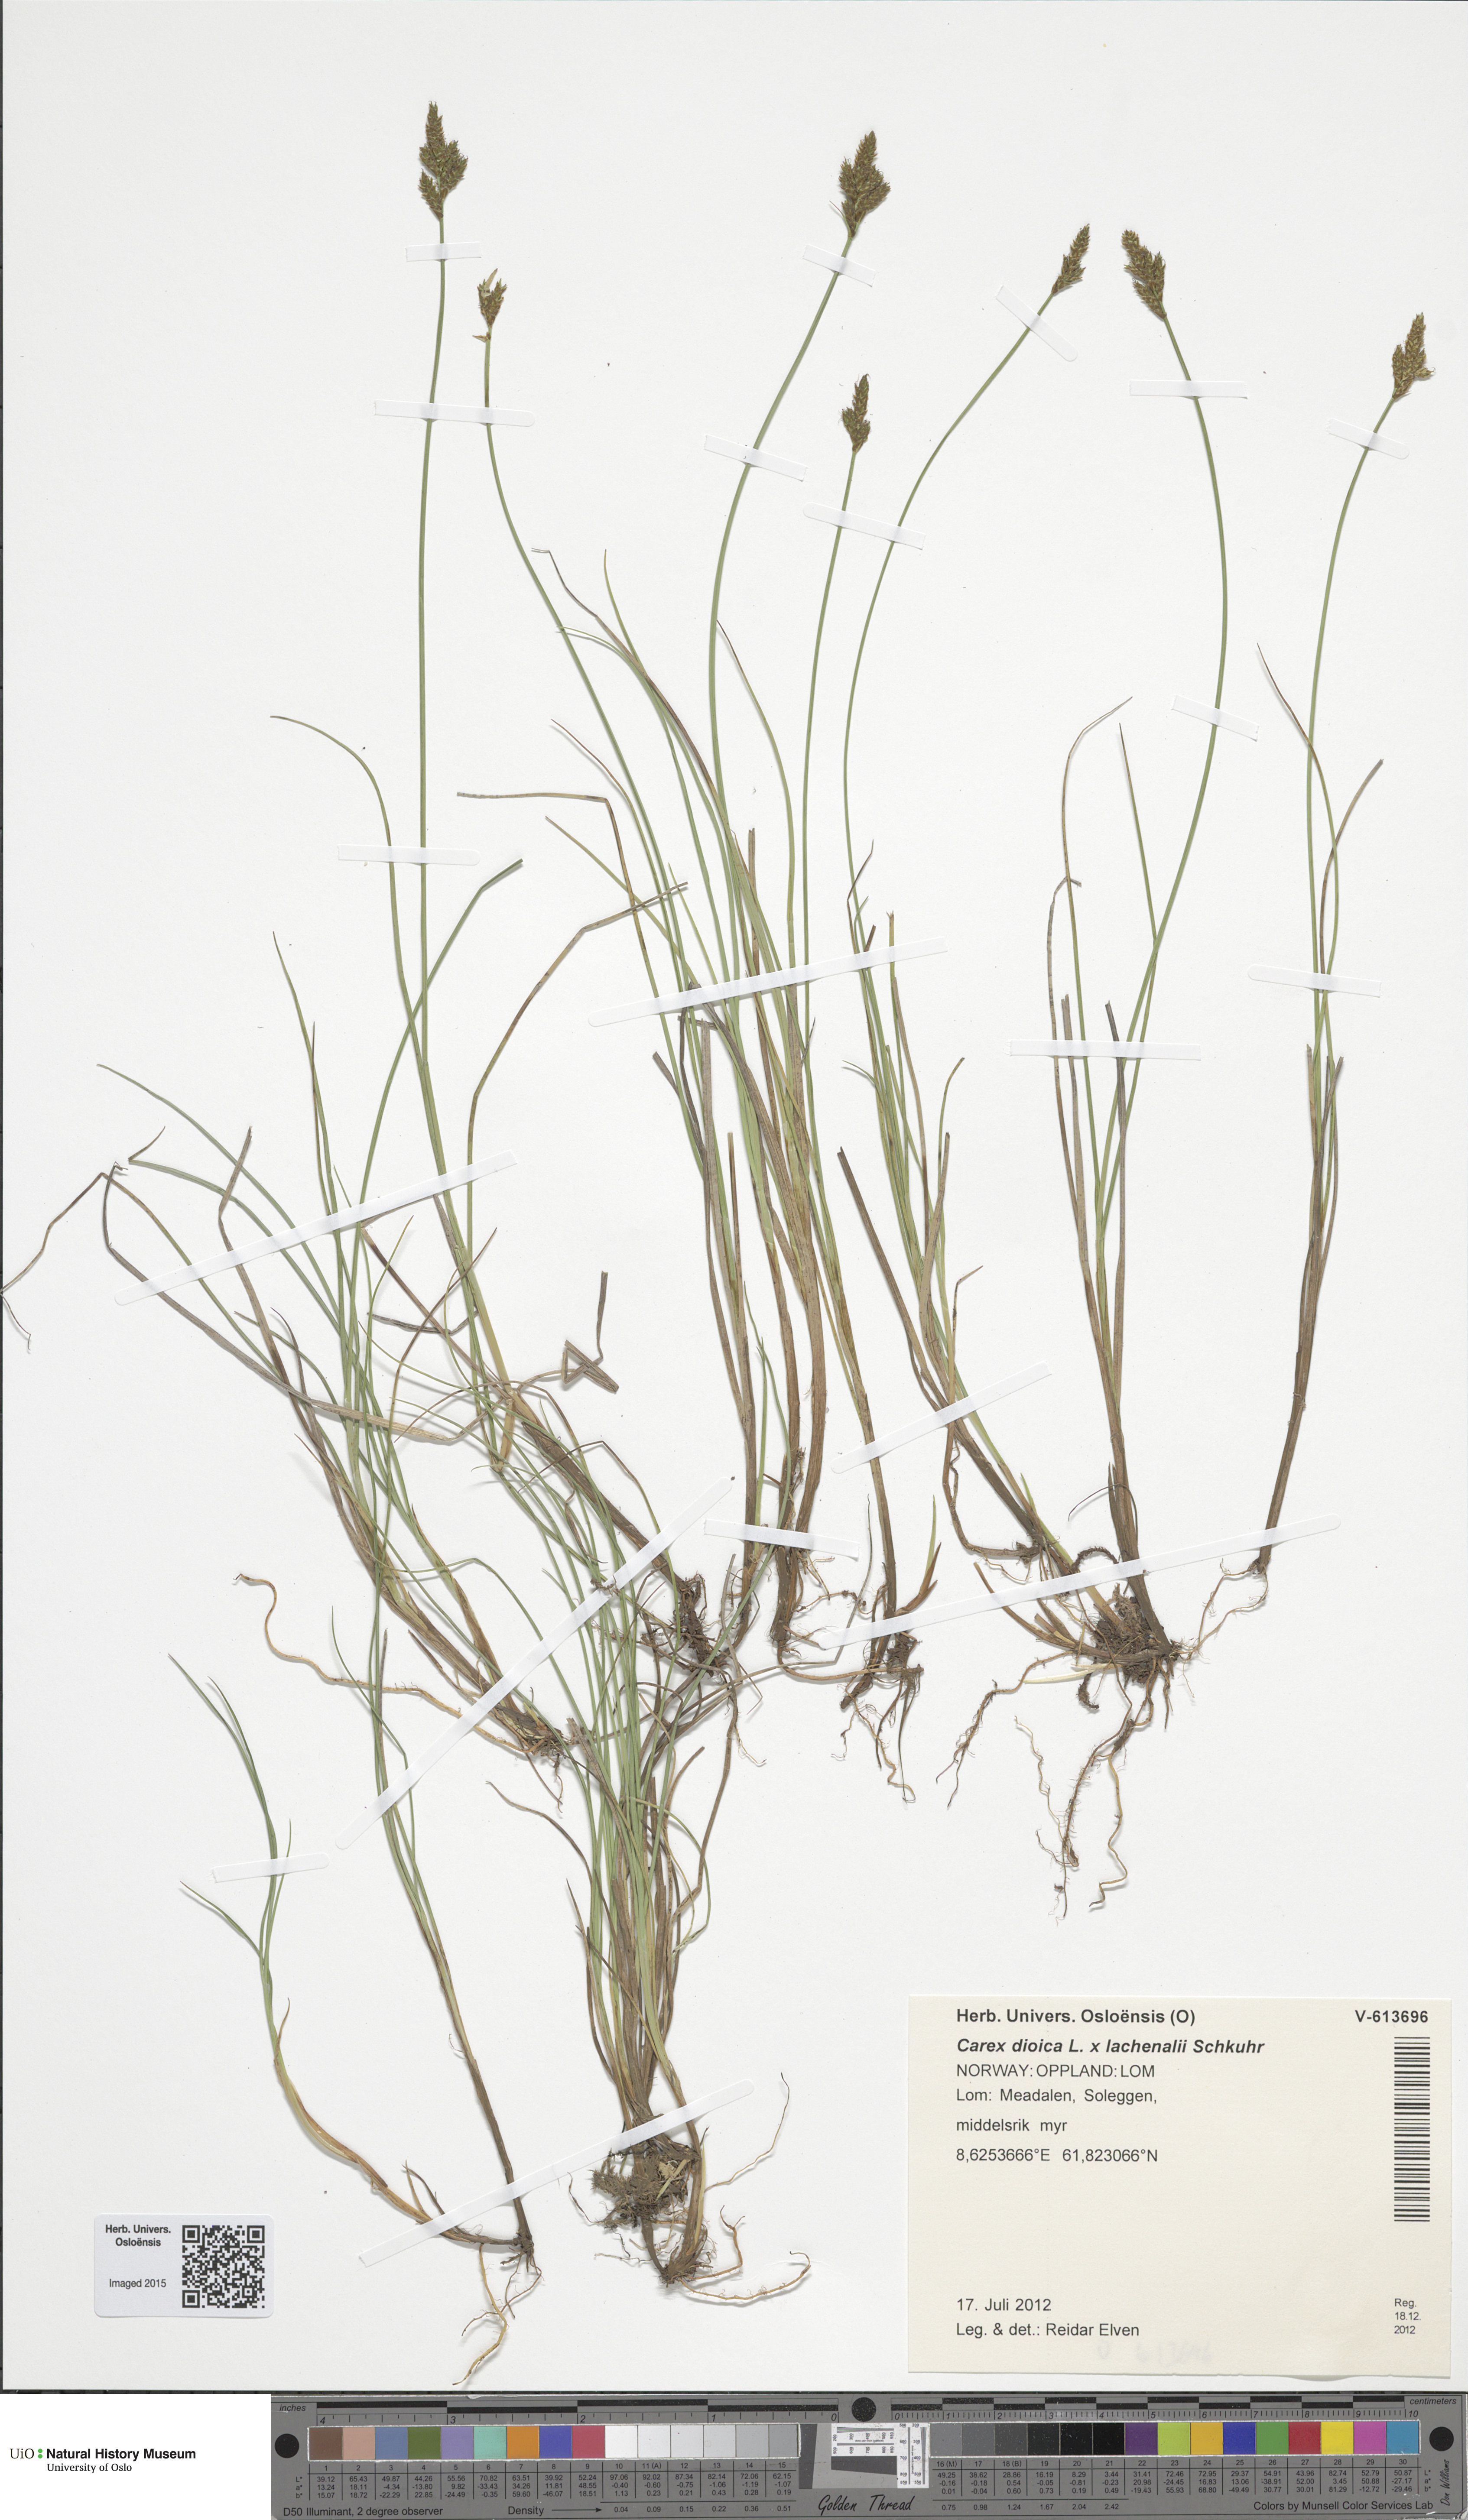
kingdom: Plantae
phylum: Tracheophyta
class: Liliopsida
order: Poales
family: Cyperaceae
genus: Carex
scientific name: Carex
